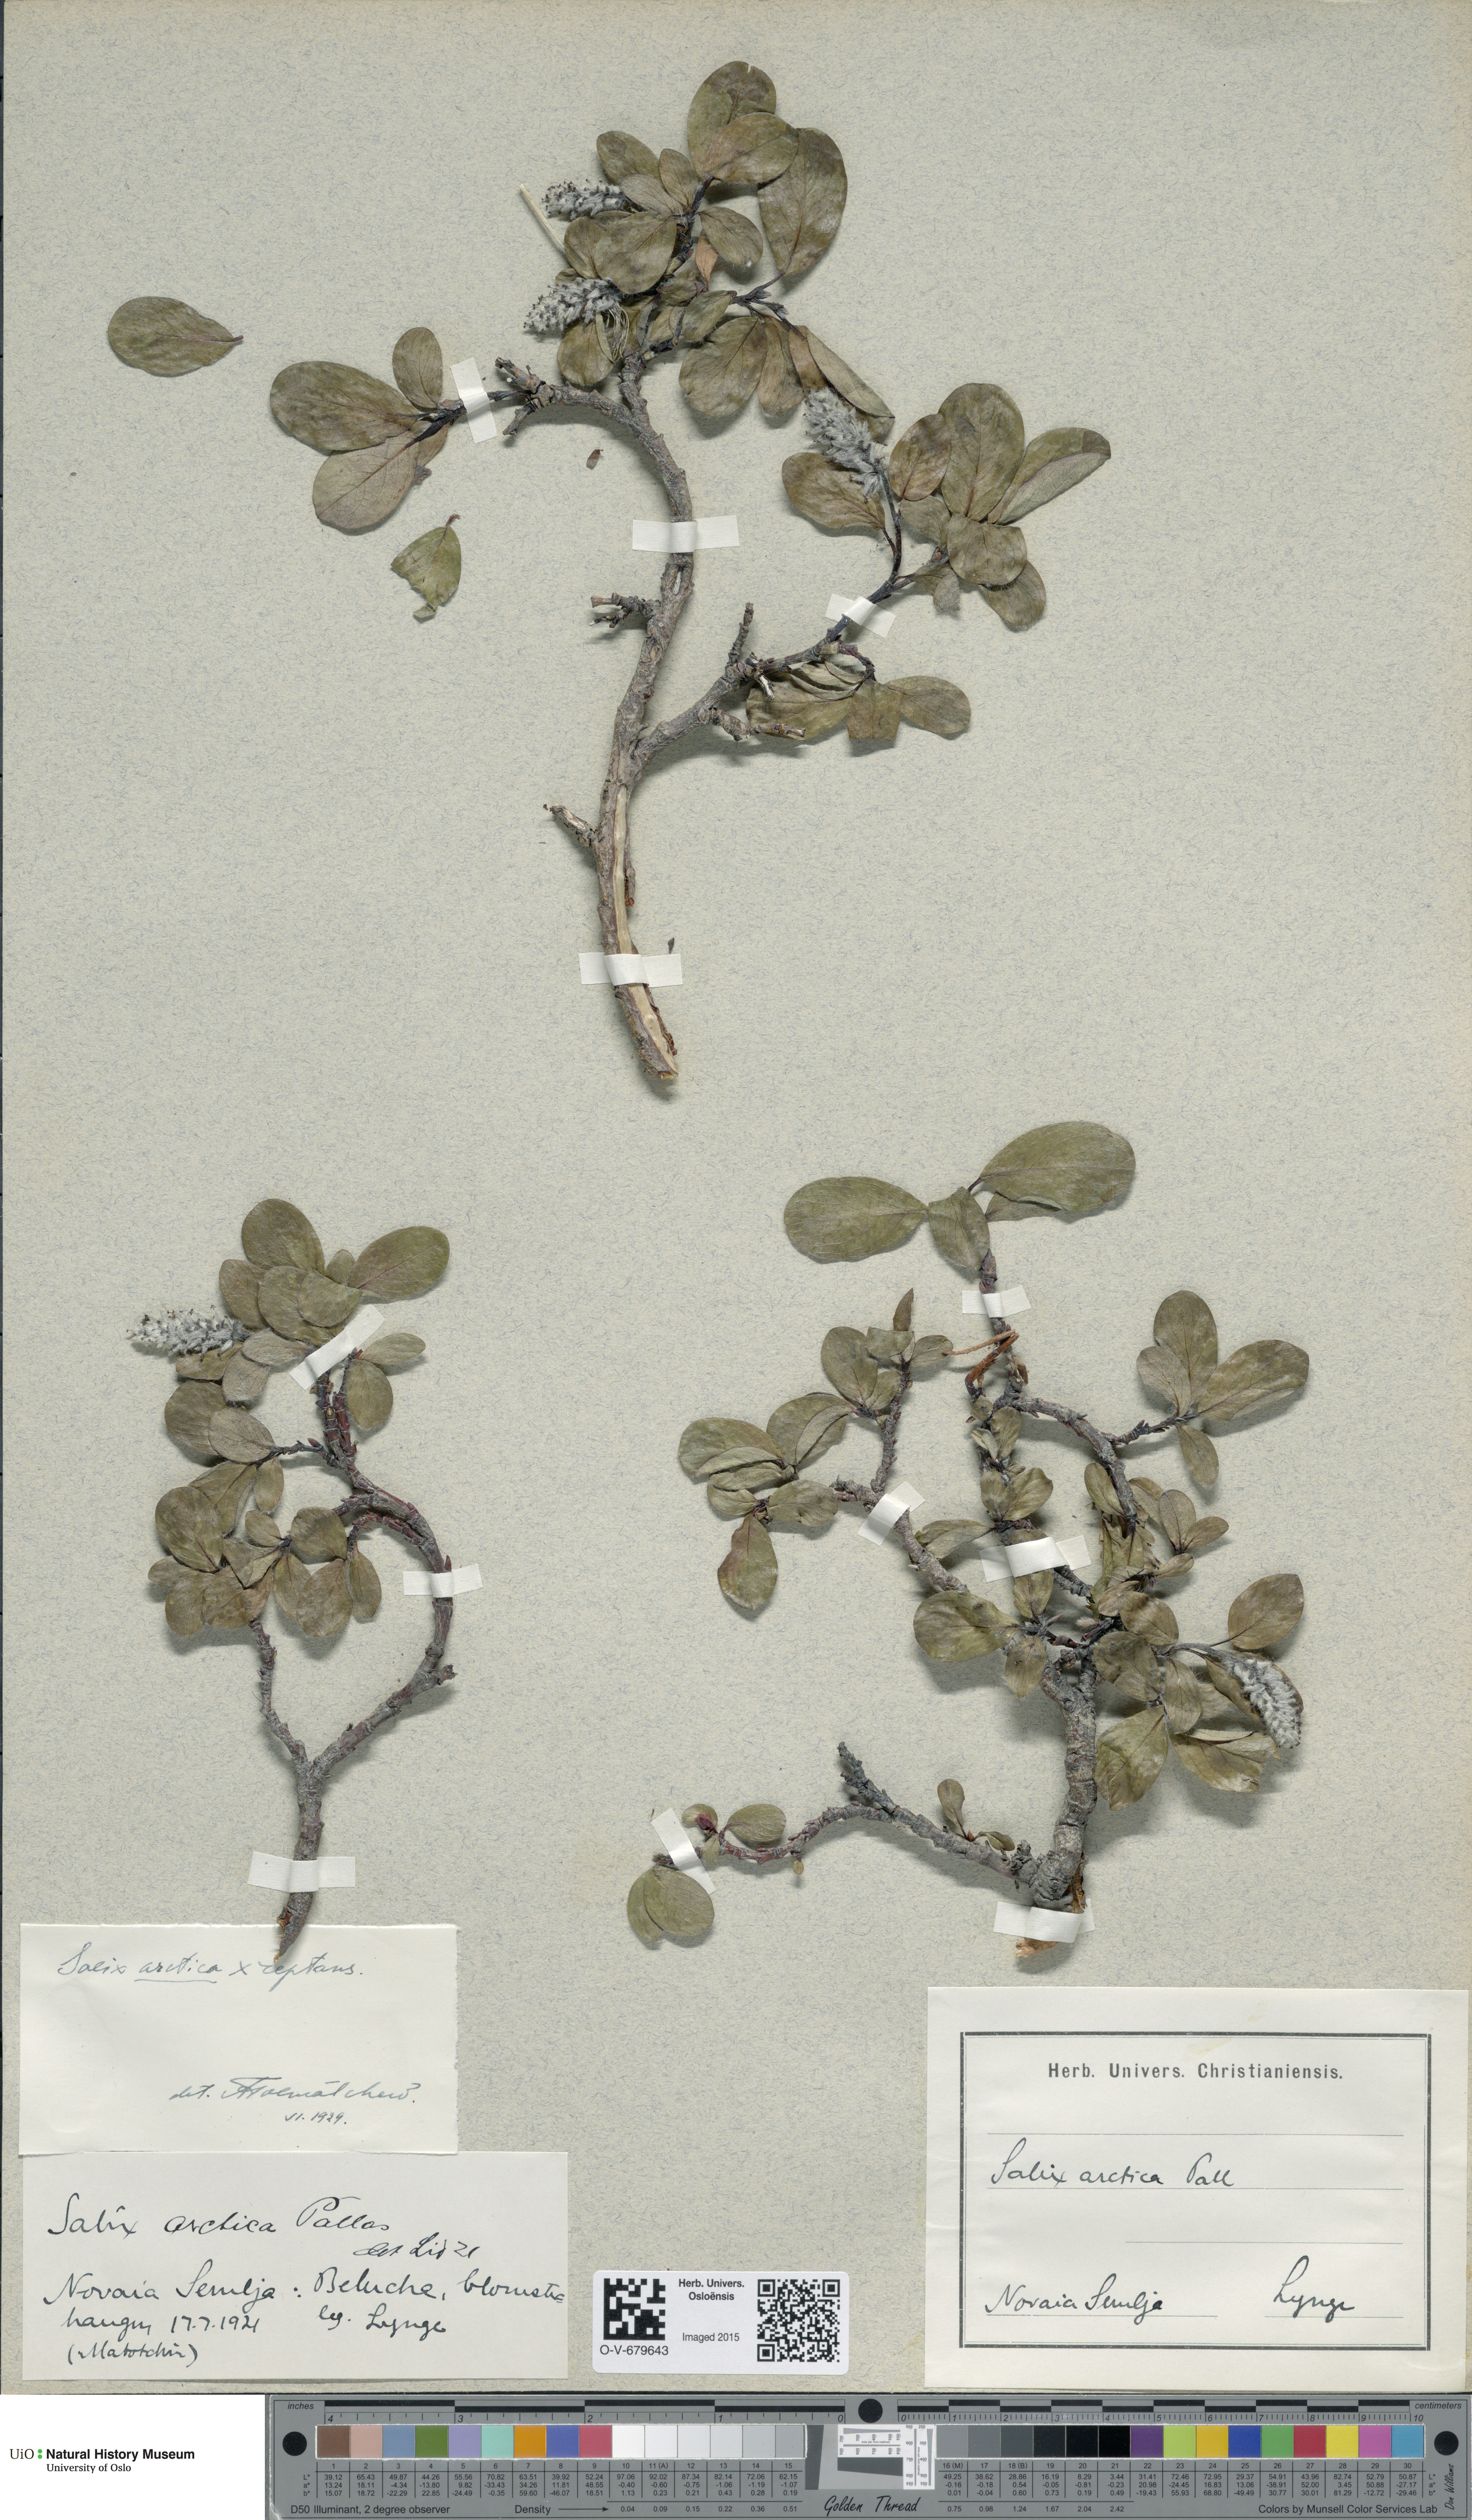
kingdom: Plantae
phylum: Tracheophyta
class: Magnoliopsida
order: Malpighiales
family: Salicaceae
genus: Salix
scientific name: Salix arctica
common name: Arctic willow
